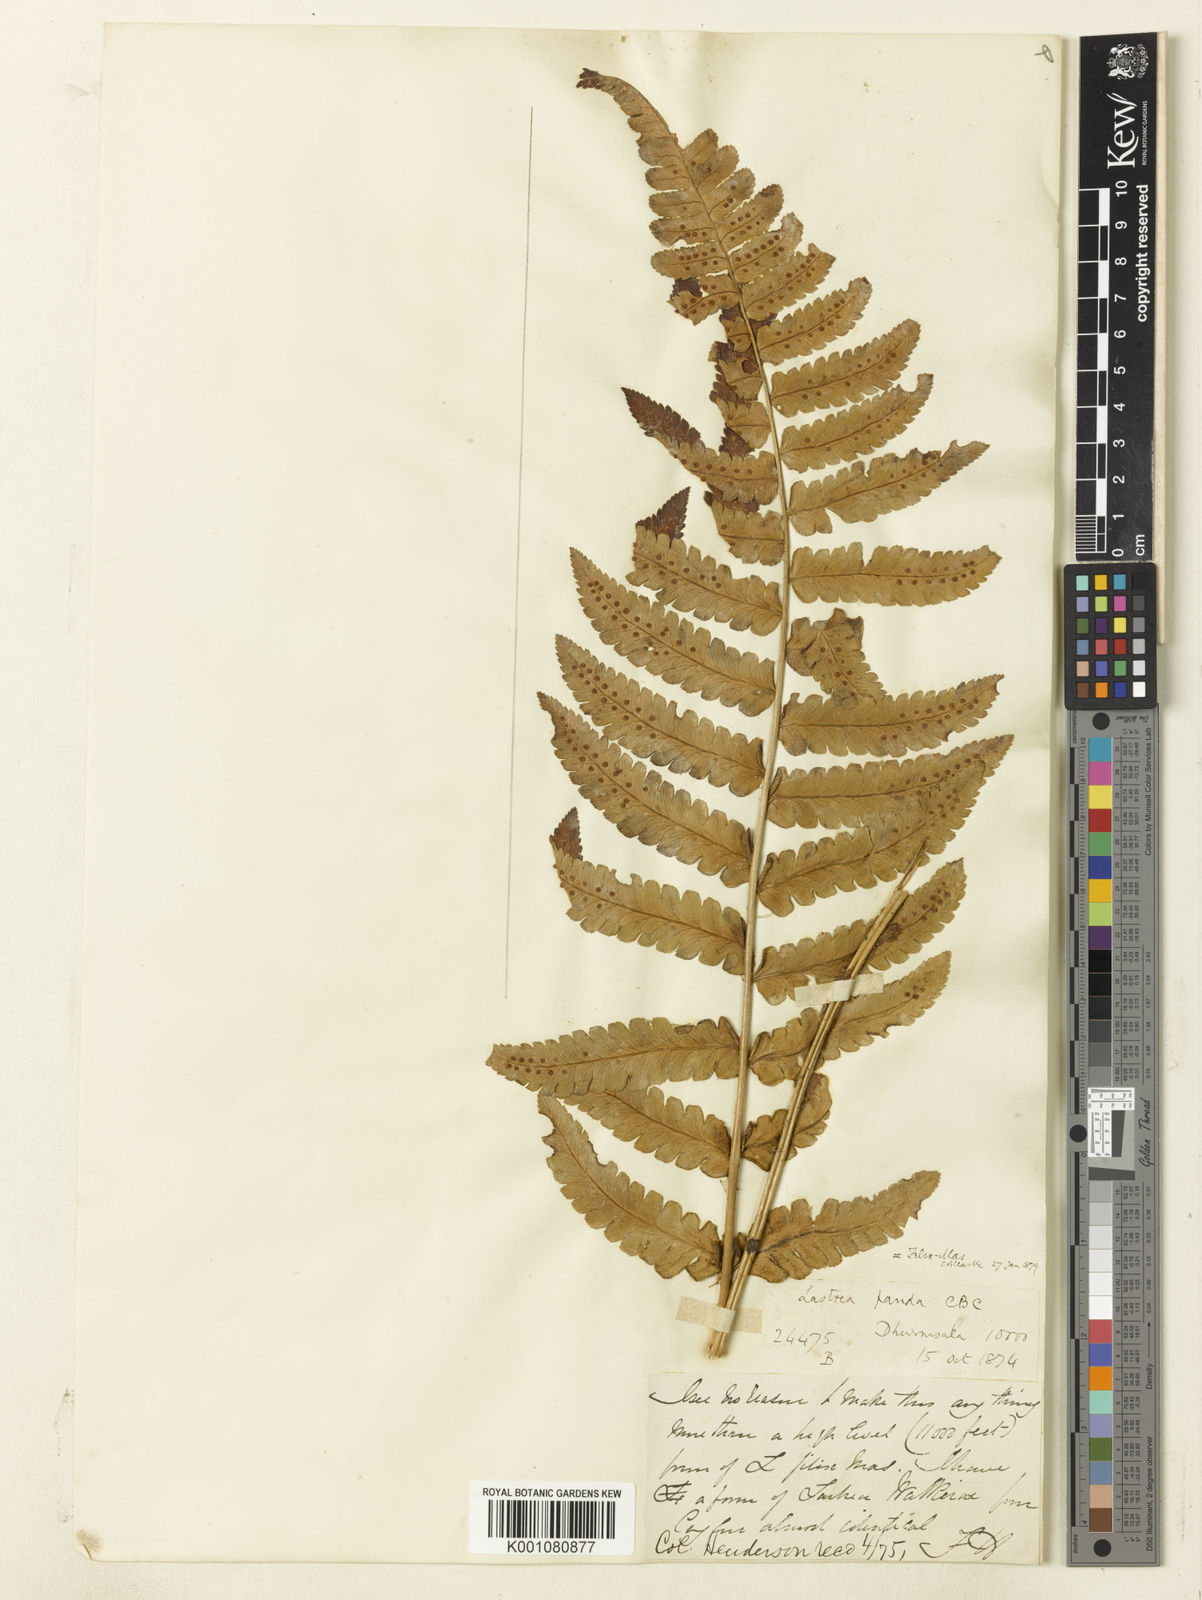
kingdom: Plantae
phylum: Tracheophyta
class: Polypodiopsida
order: Polypodiales
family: Dryopteridaceae
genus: Dryopteris
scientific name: Dryopteris panda
